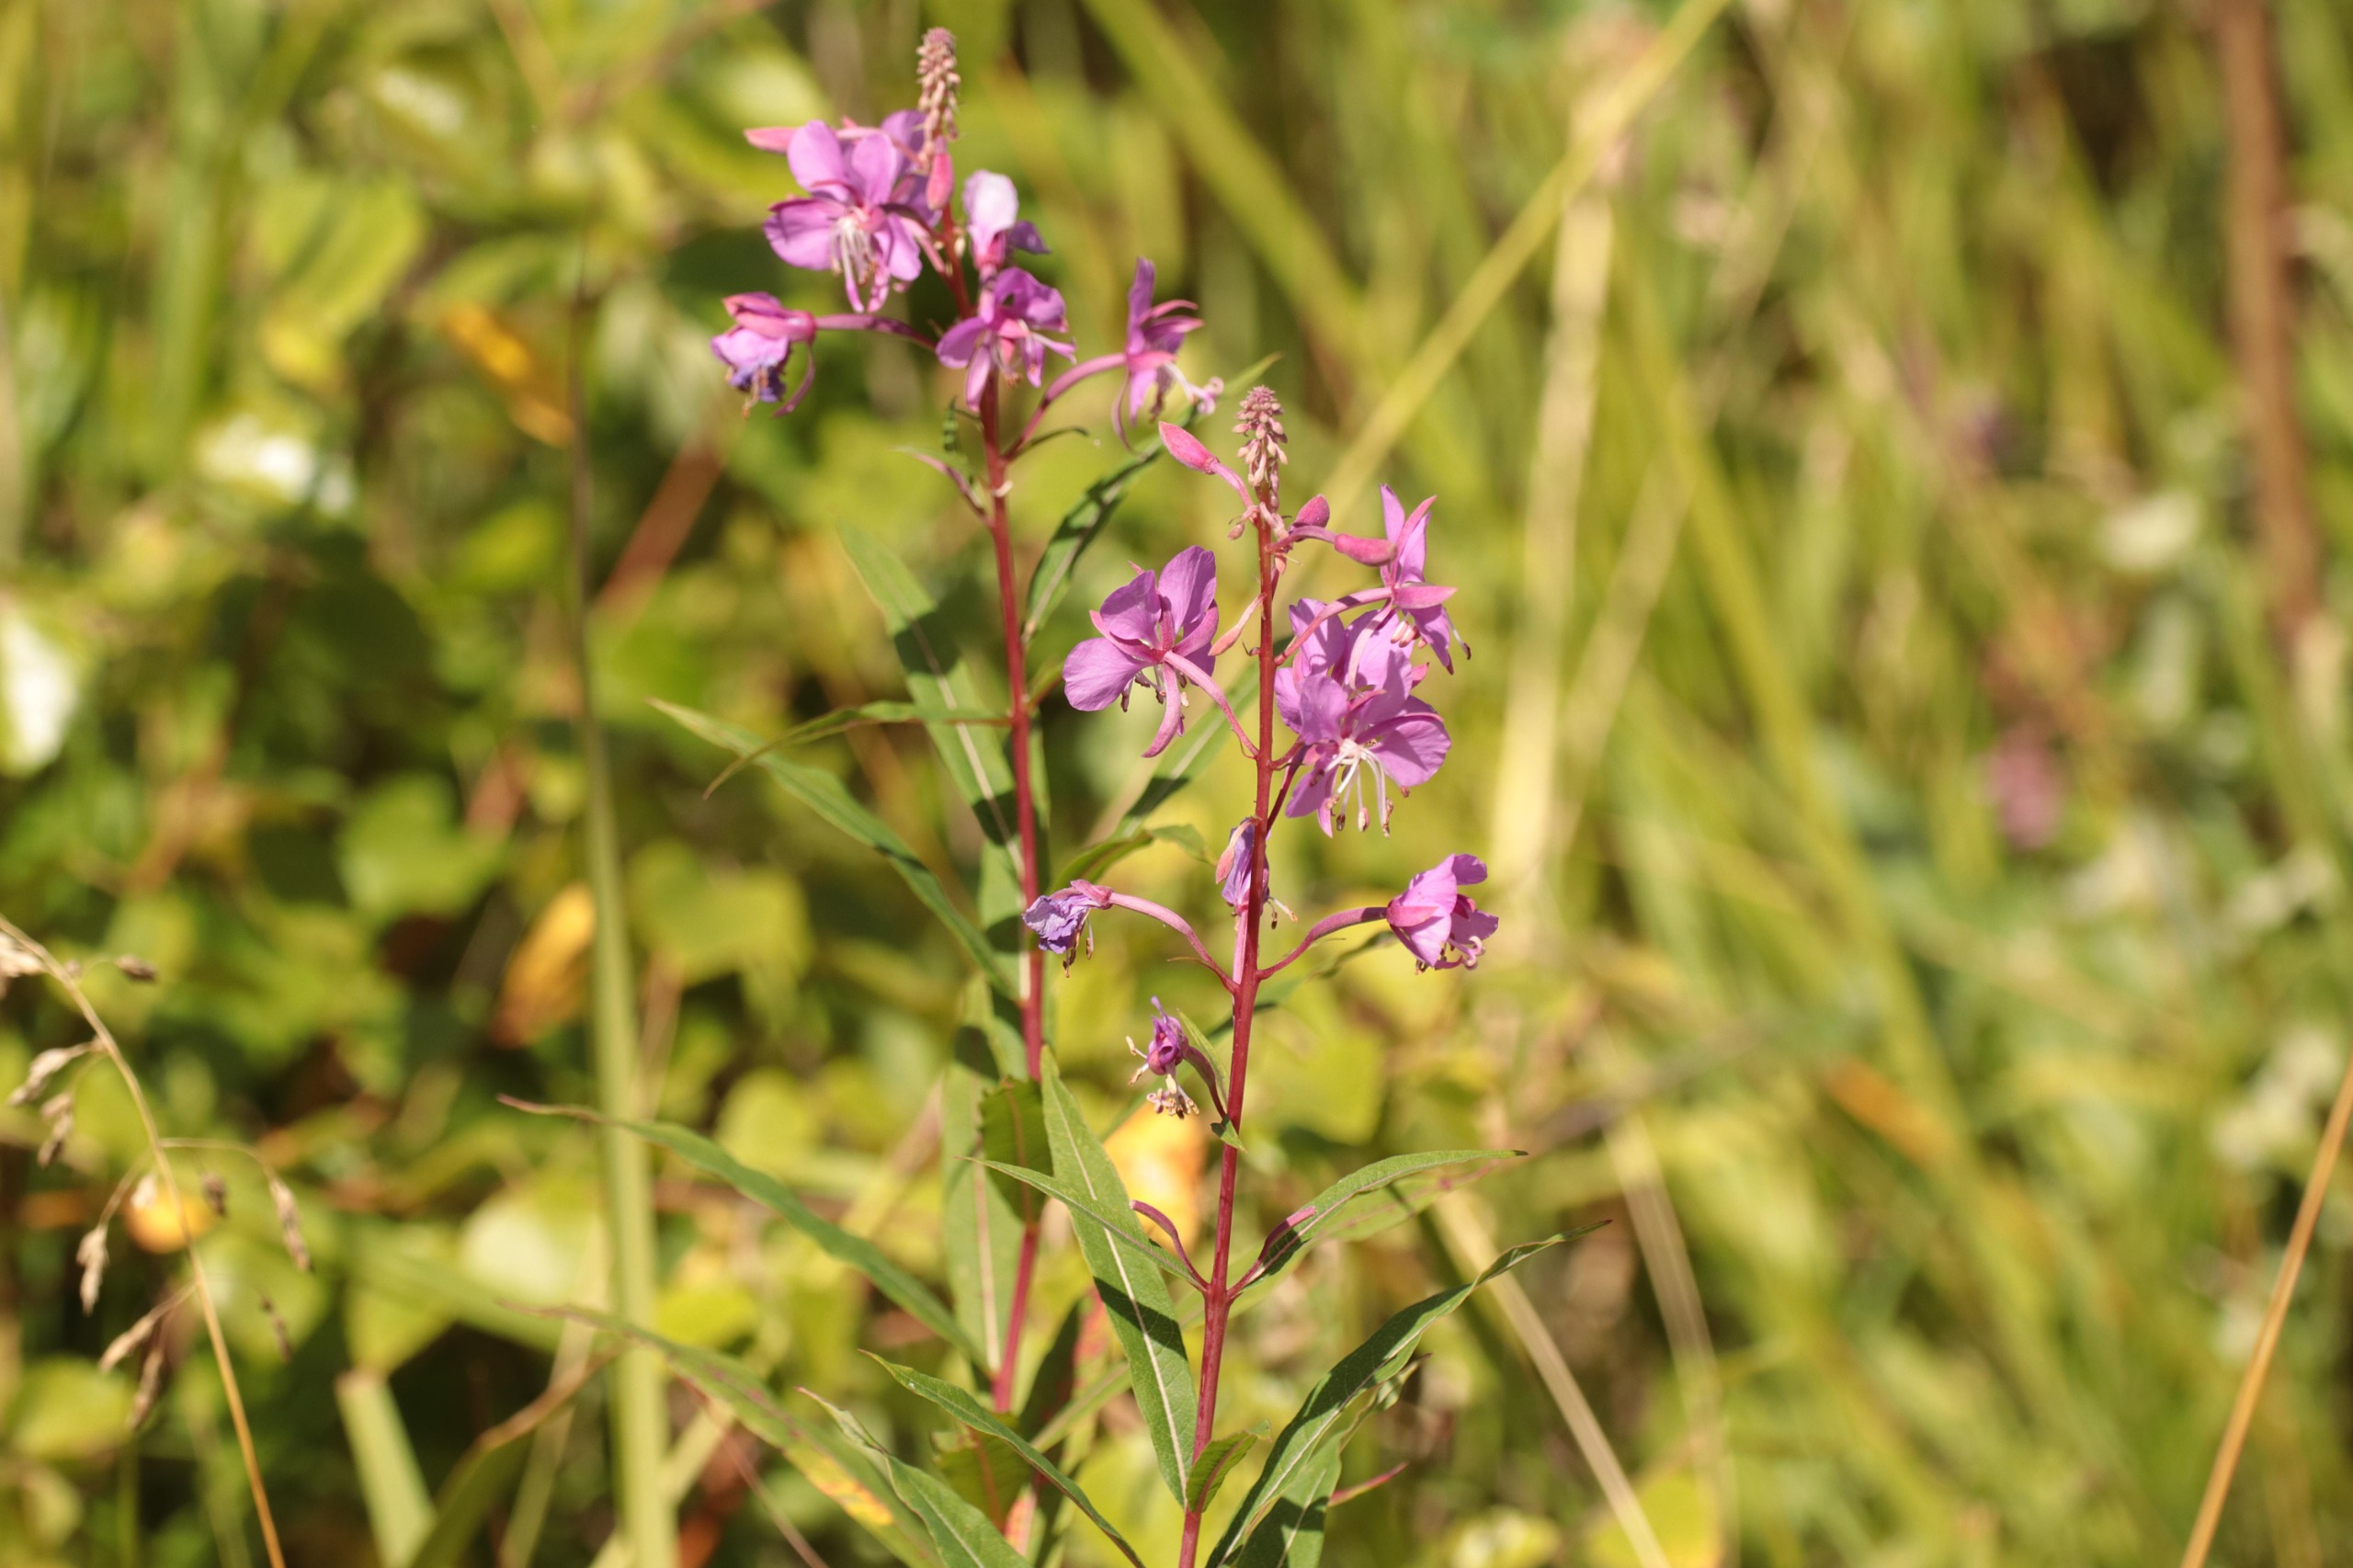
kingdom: Plantae
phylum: Tracheophyta
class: Magnoliopsida
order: Myrtales
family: Onagraceae
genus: Chamaenerion
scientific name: Chamaenerion angustifolium
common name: Gederams
